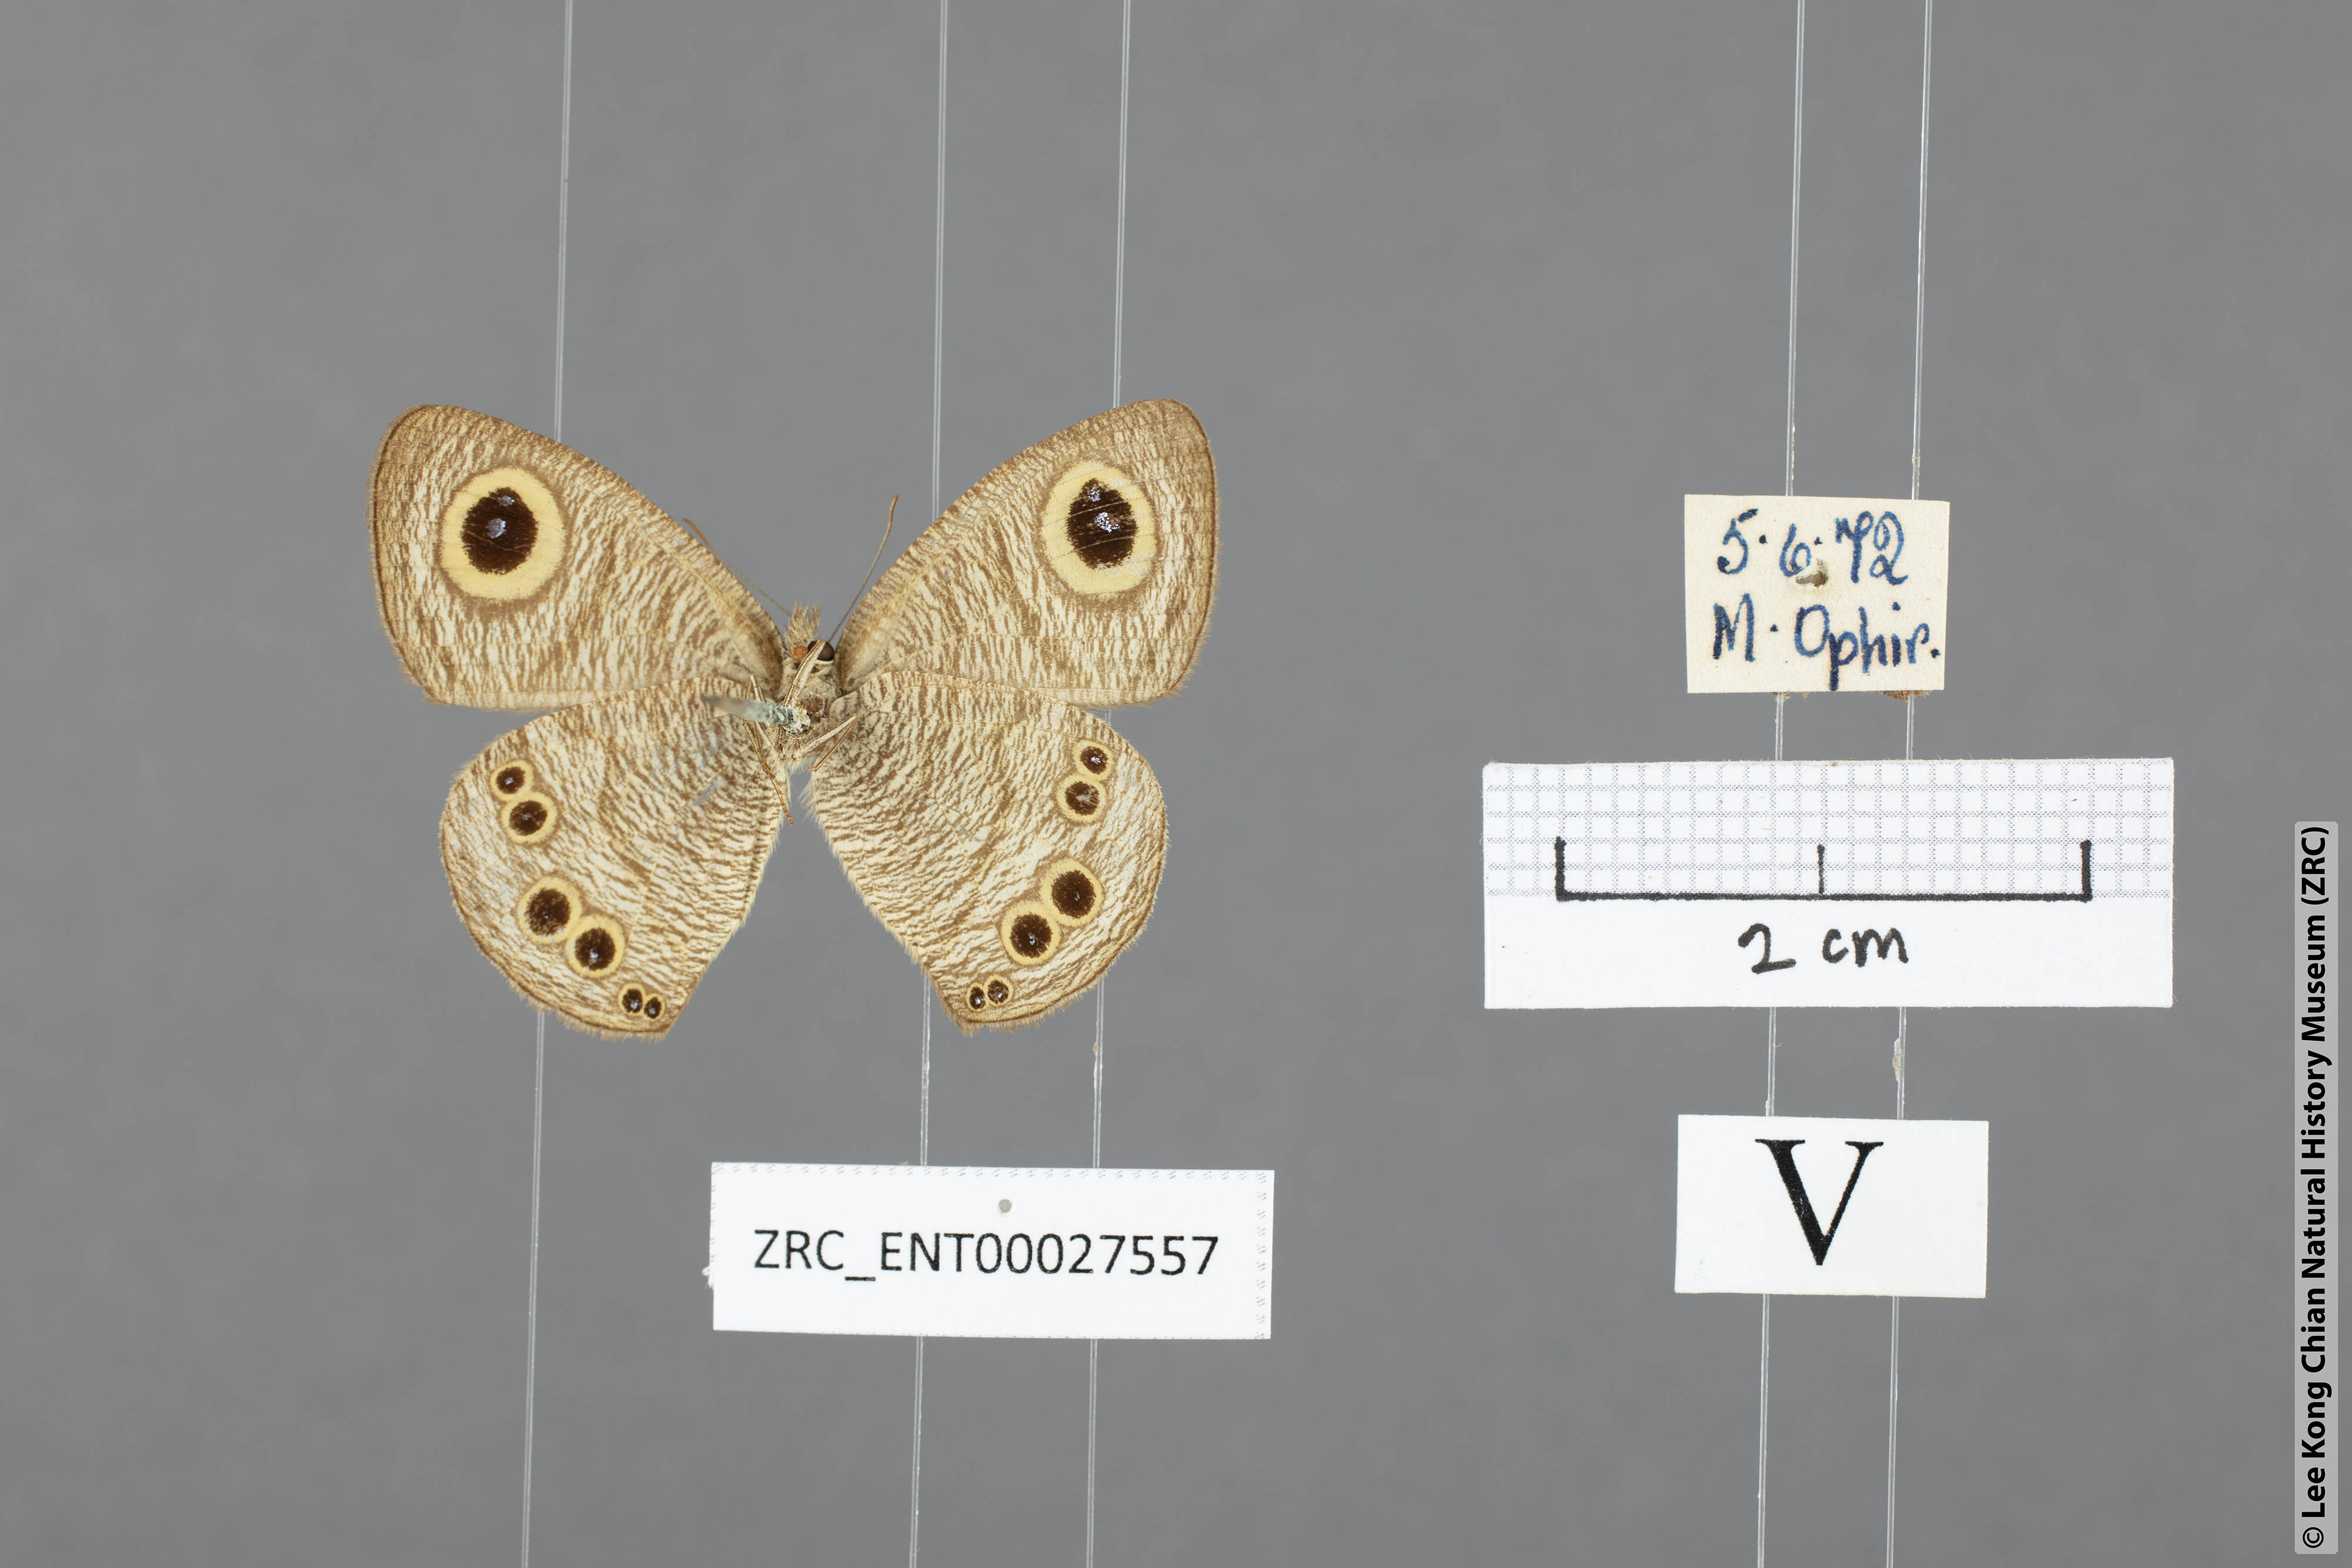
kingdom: Animalia
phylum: Arthropoda
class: Insecta
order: Lepidoptera
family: Nymphalidae
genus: Ypthima
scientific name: Ypthima baldus
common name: Common five-ring
